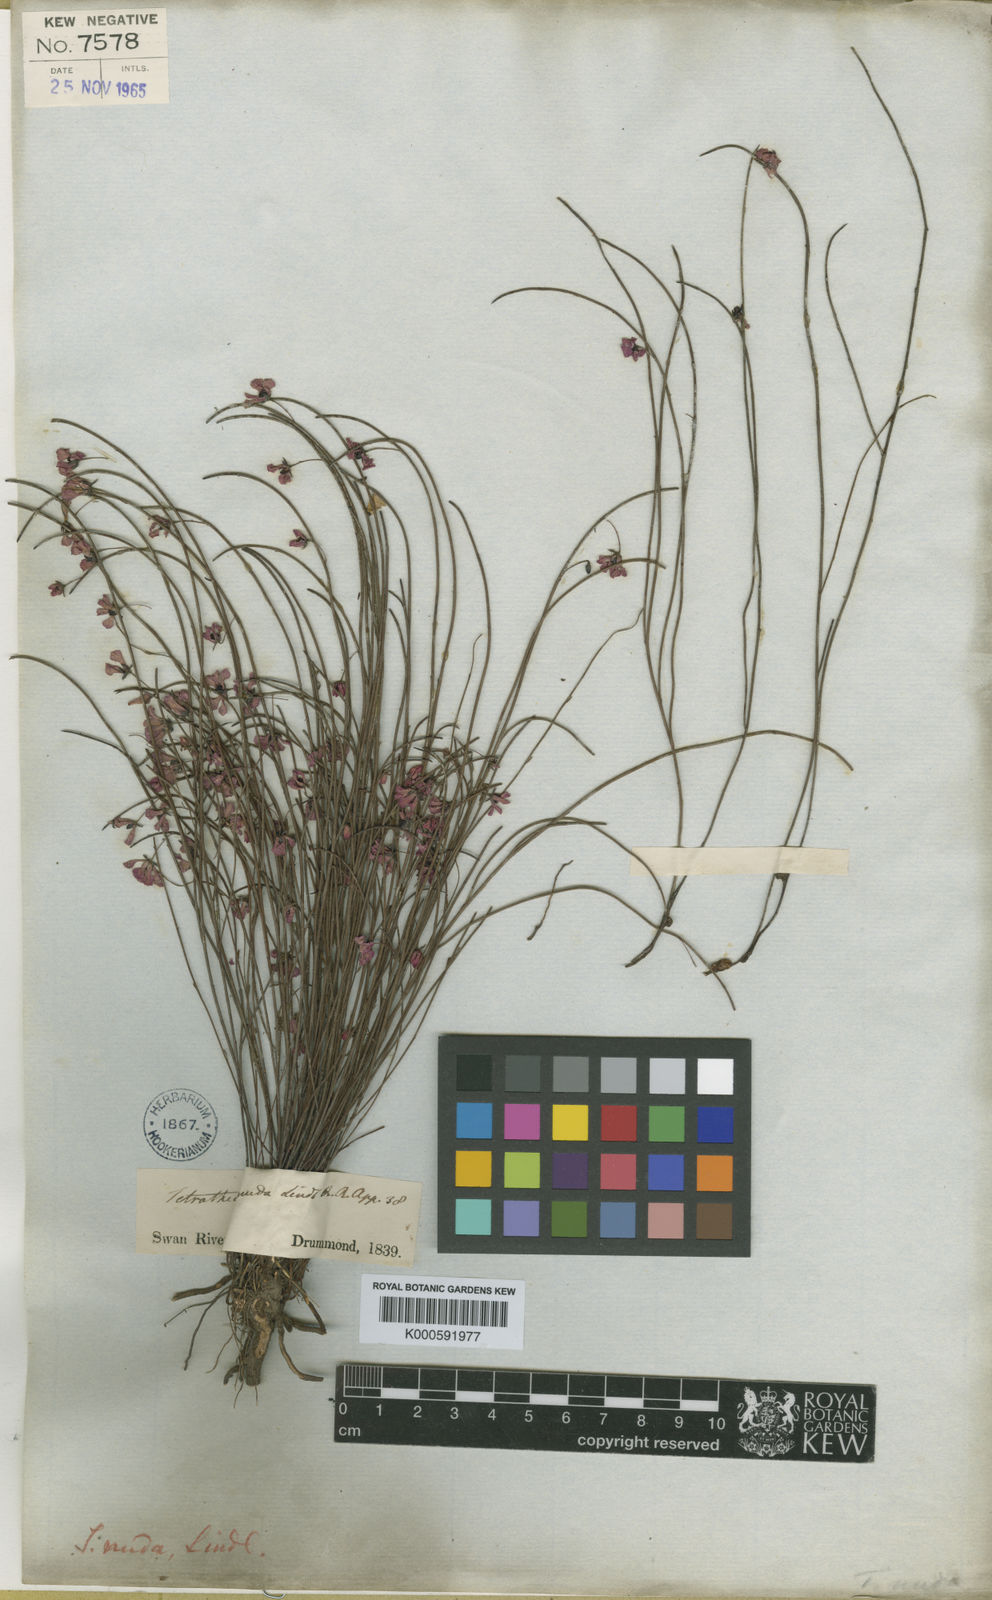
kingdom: Plantae
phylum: Tracheophyta
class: Magnoliopsida
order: Oxalidales
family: Elaeocarpaceae
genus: Tetratheca
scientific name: Tetratheca nuda
